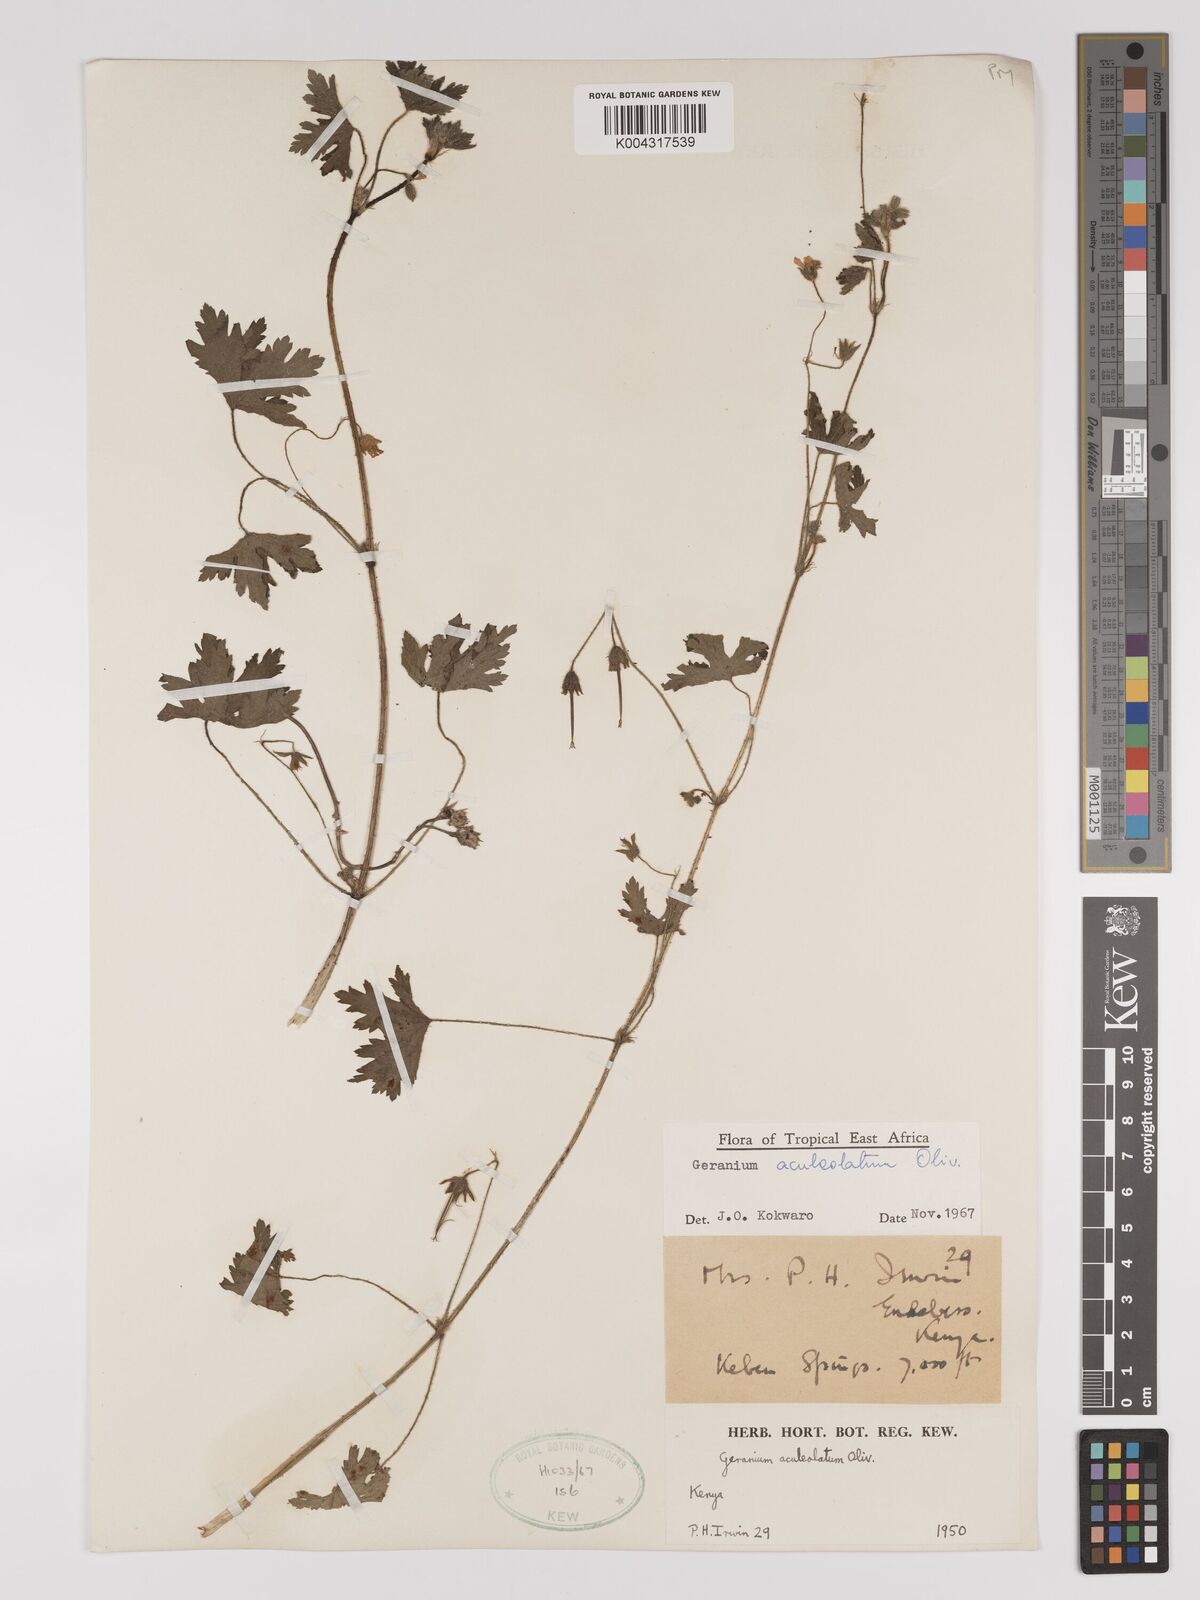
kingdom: Plantae
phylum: Tracheophyta
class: Magnoliopsida
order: Geraniales
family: Geraniaceae
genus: Geranium
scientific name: Geranium aculeolatum
